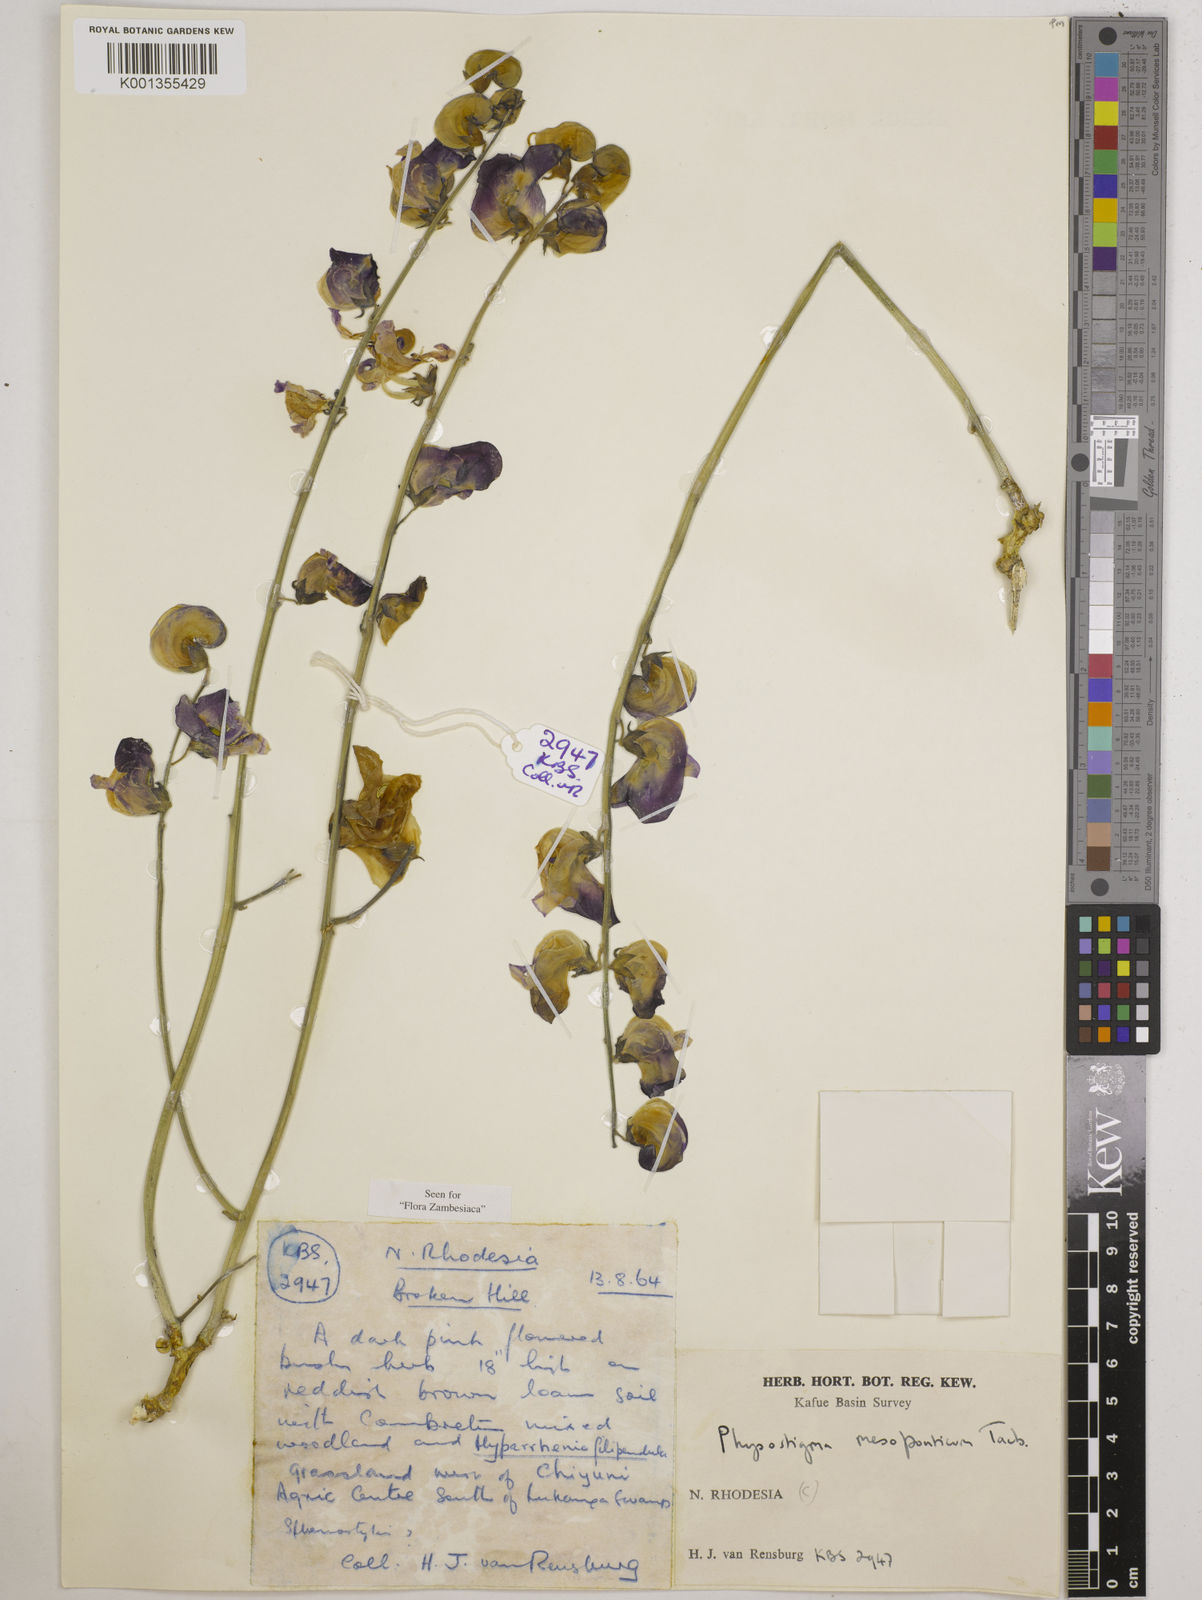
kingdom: Plantae
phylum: Tracheophyta
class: Magnoliopsida
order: Fabales
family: Fabaceae
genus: Physostigma
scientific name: Physostigma mesoponticum
